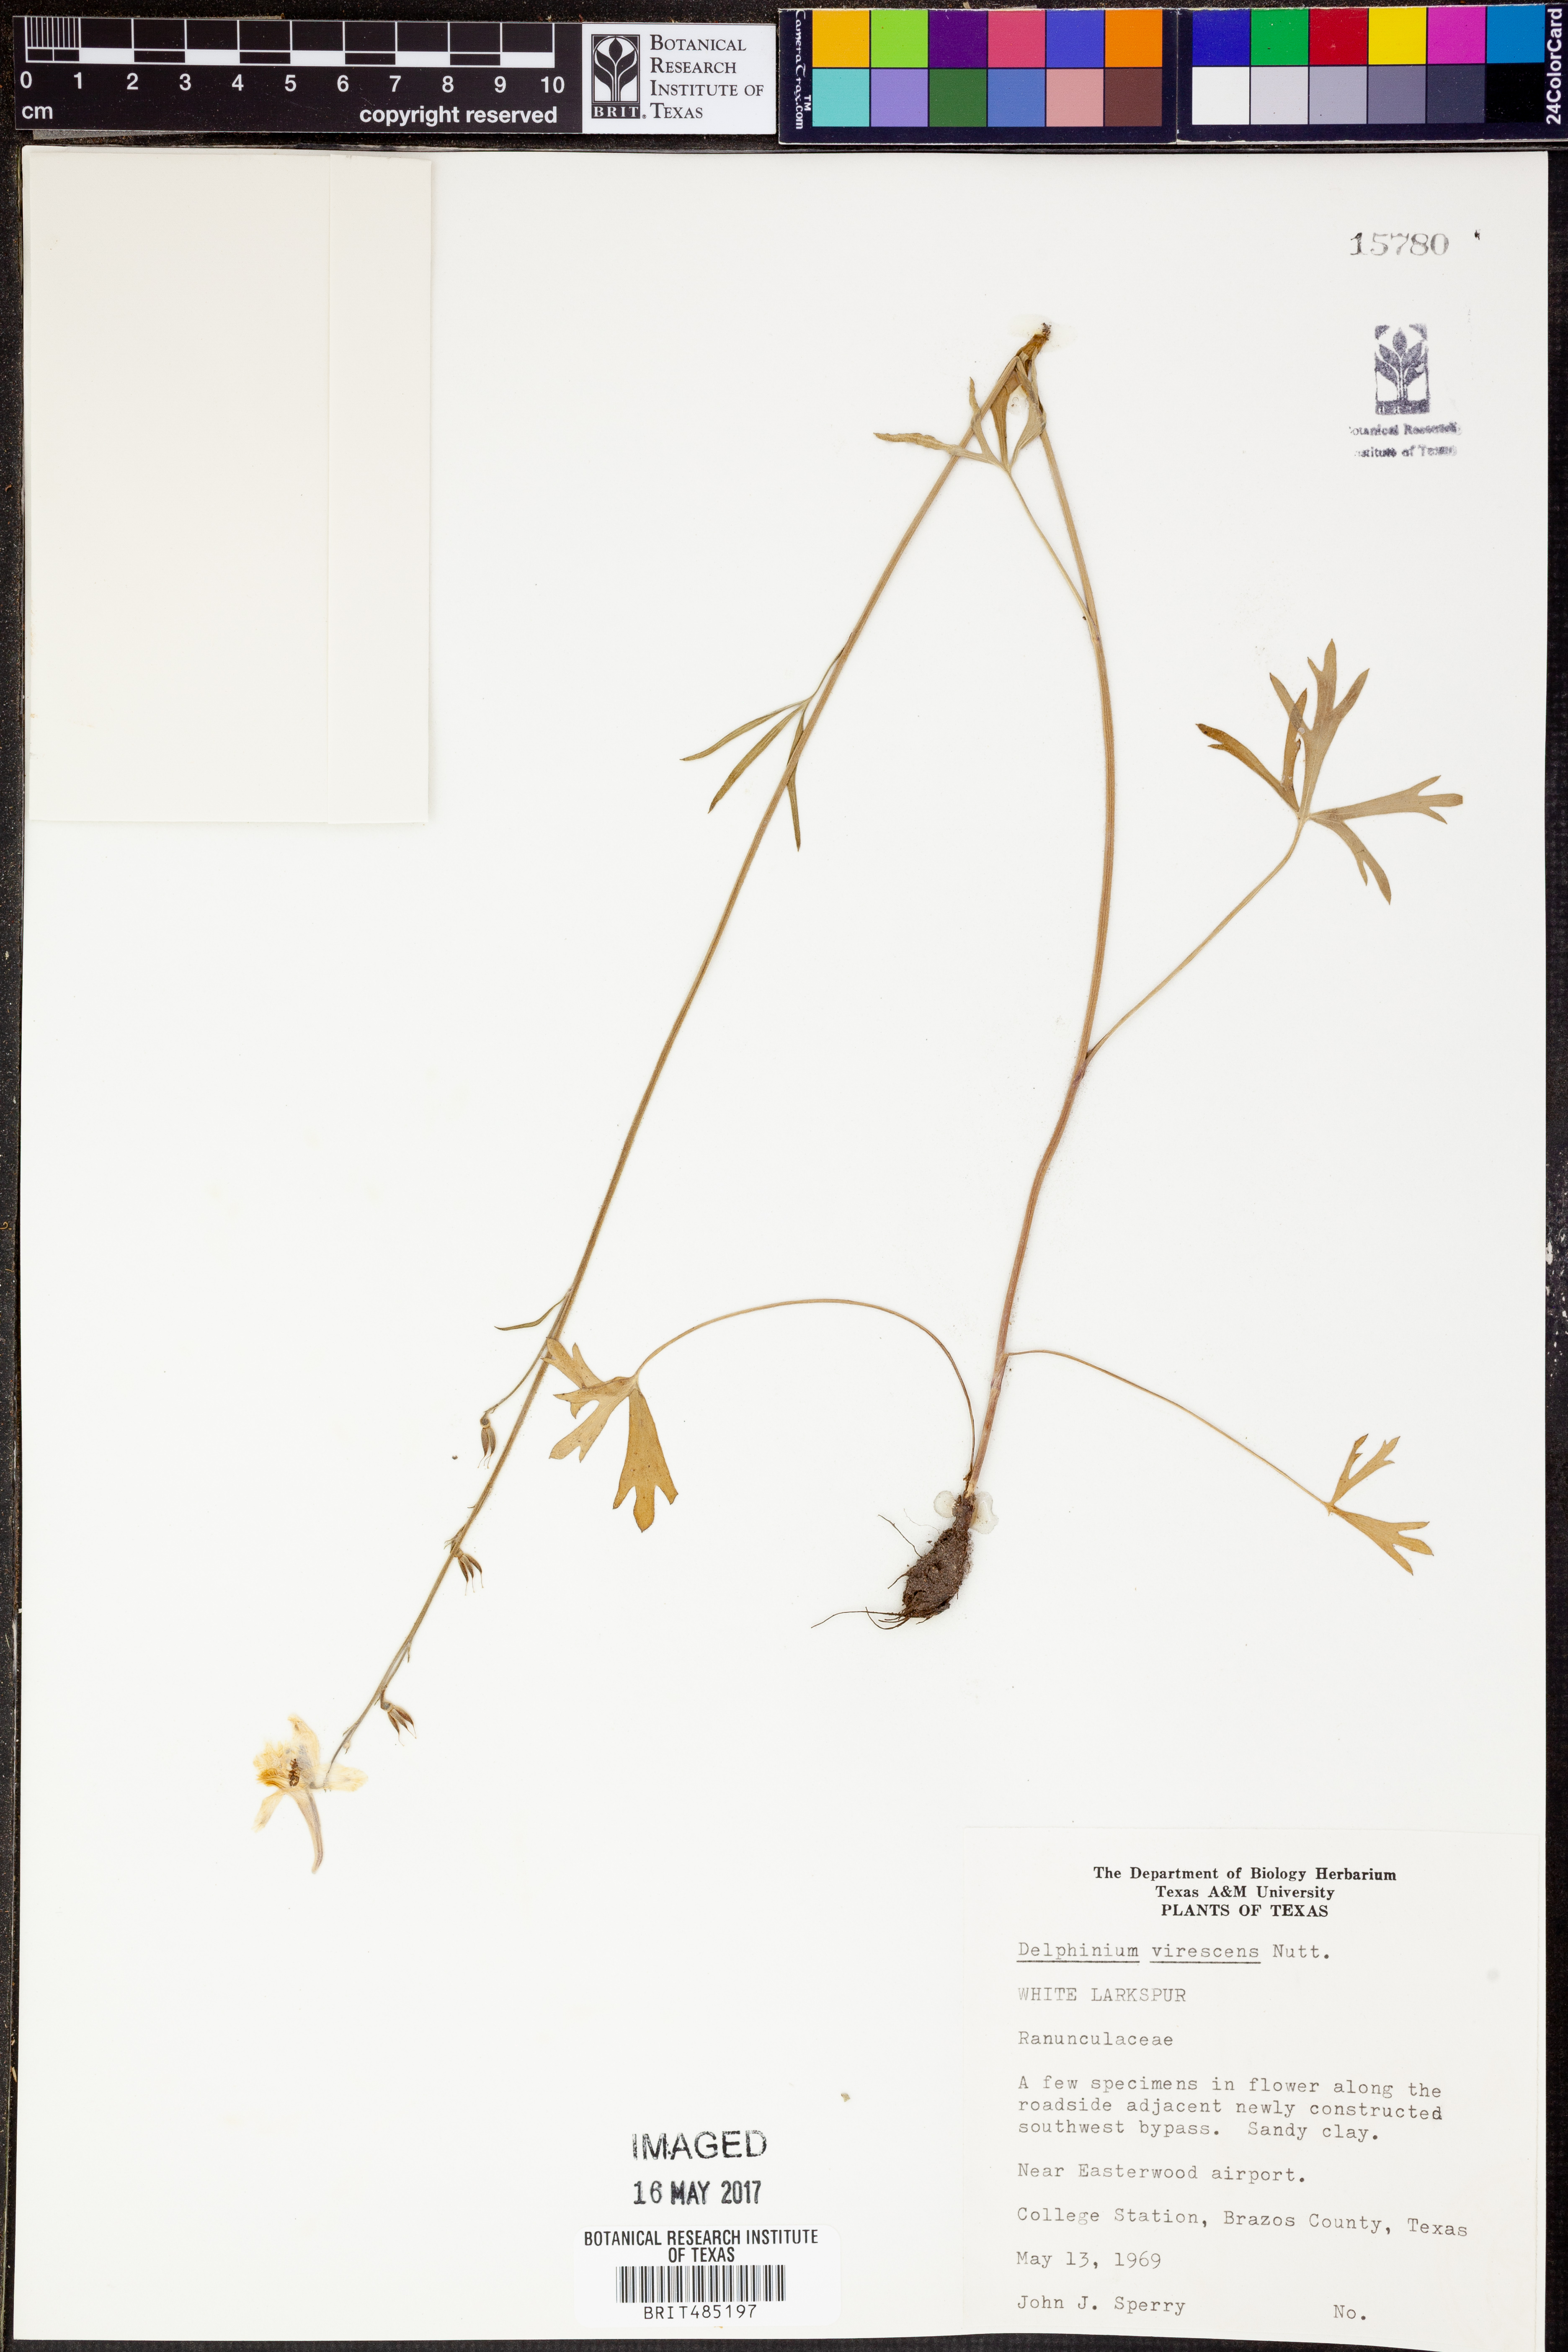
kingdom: Plantae
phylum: Tracheophyta
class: Magnoliopsida
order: Ranunculales
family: Ranunculaceae
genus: Delphinium
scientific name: Delphinium carolinianum
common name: Carolina larkspur
